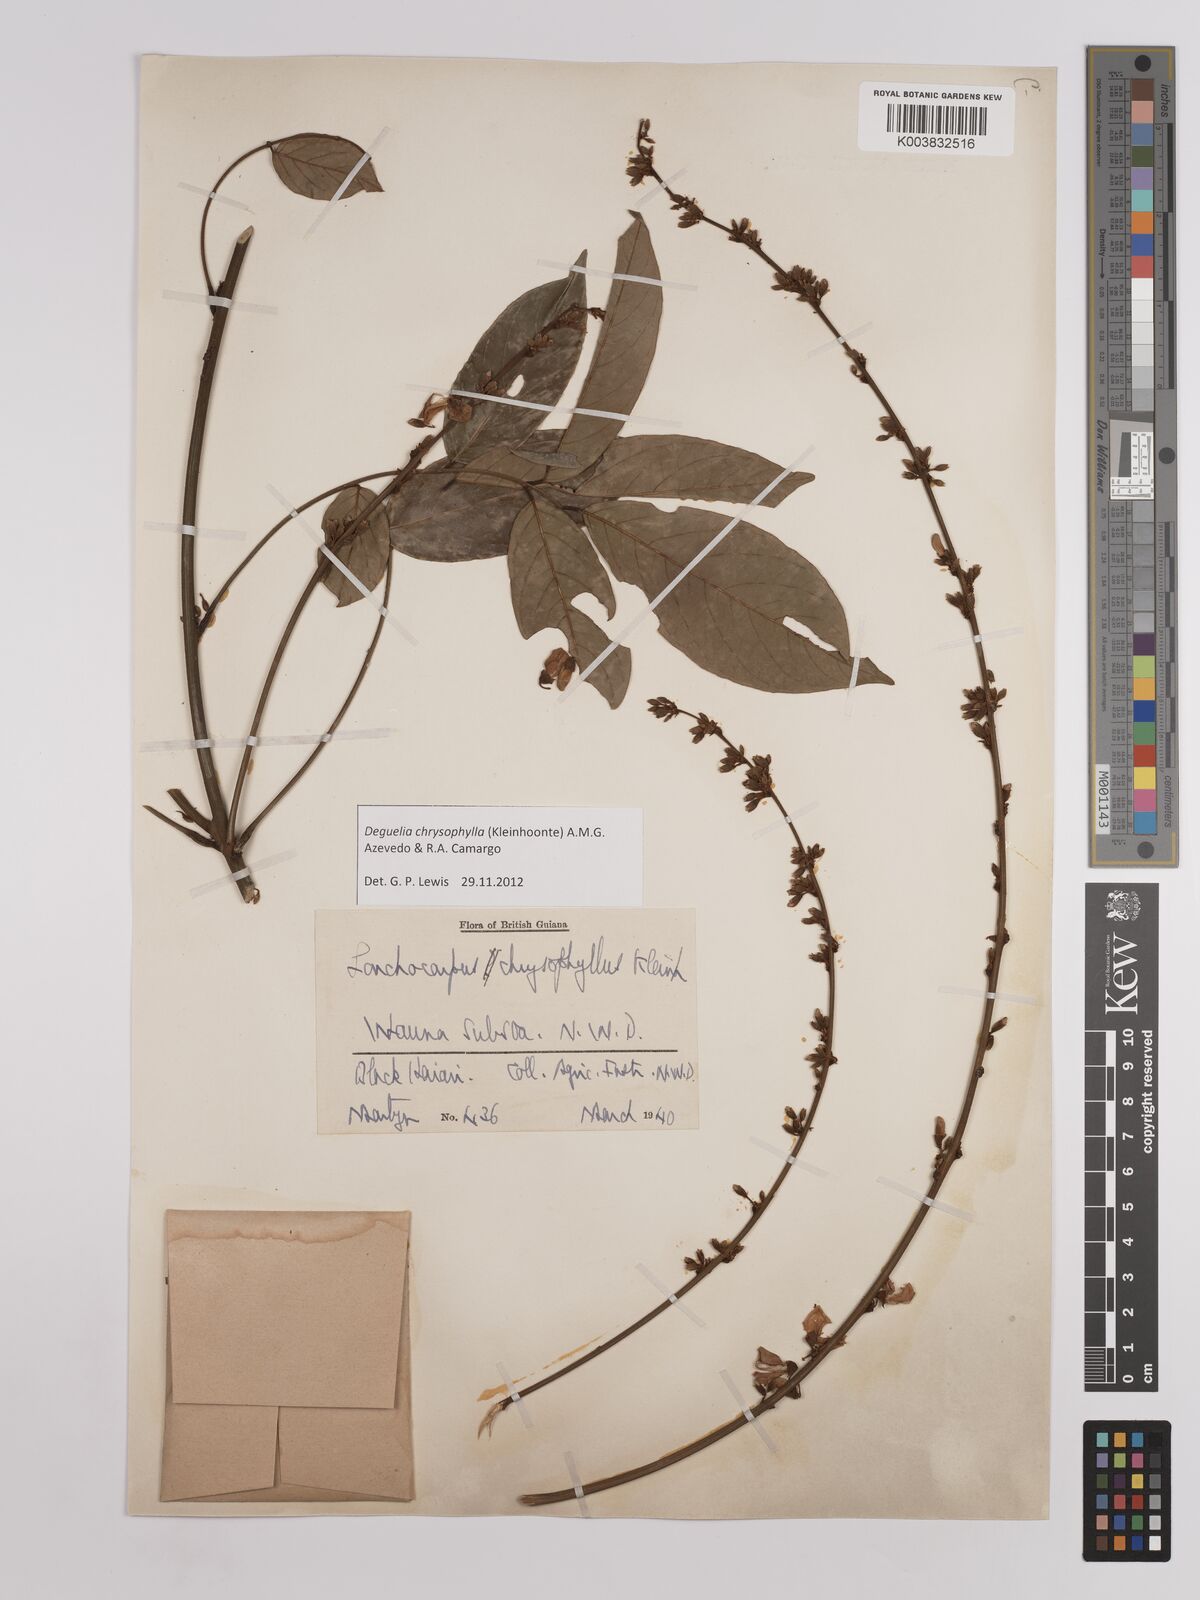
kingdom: Plantae
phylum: Tracheophyta
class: Magnoliopsida
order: Fabales
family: Fabaceae
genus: Deguelia
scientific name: Deguelia chrysophylla
